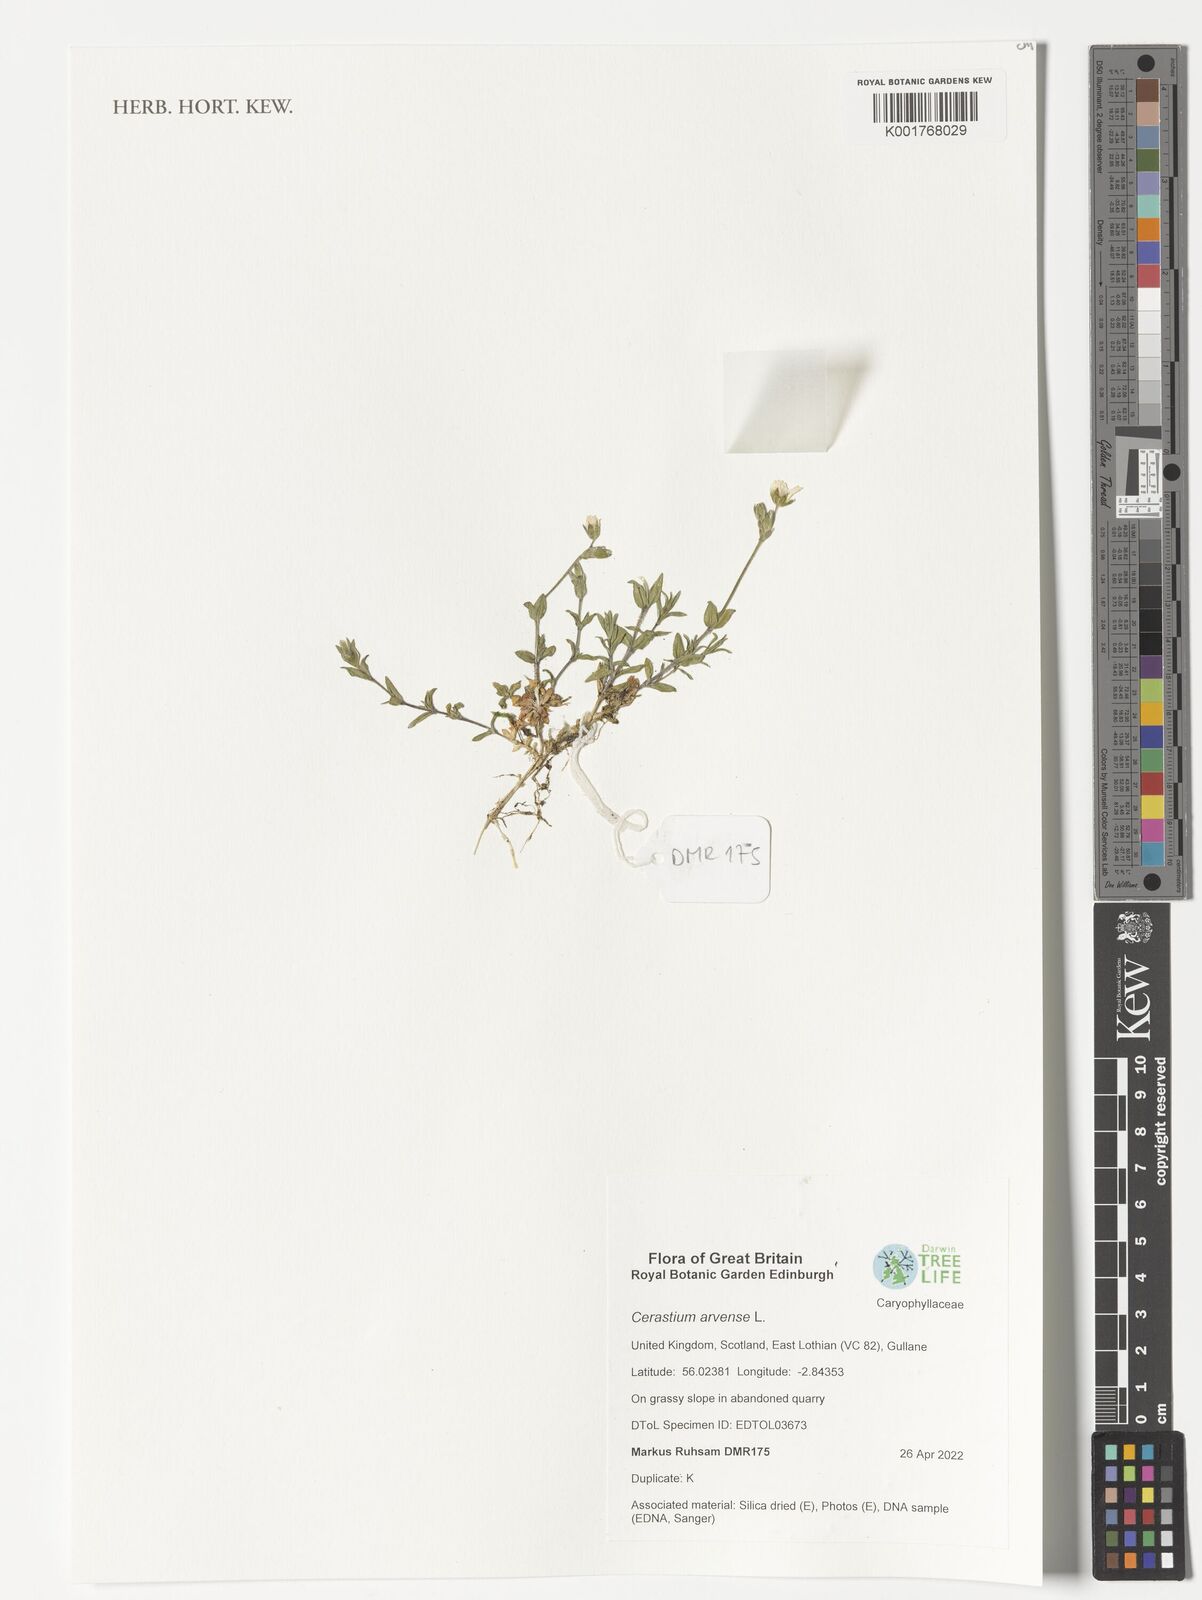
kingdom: Plantae
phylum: Tracheophyta
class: Magnoliopsida
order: Caryophyllales
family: Caryophyllaceae
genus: Cerastium
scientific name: Cerastium arvense
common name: Field mouse-ear
